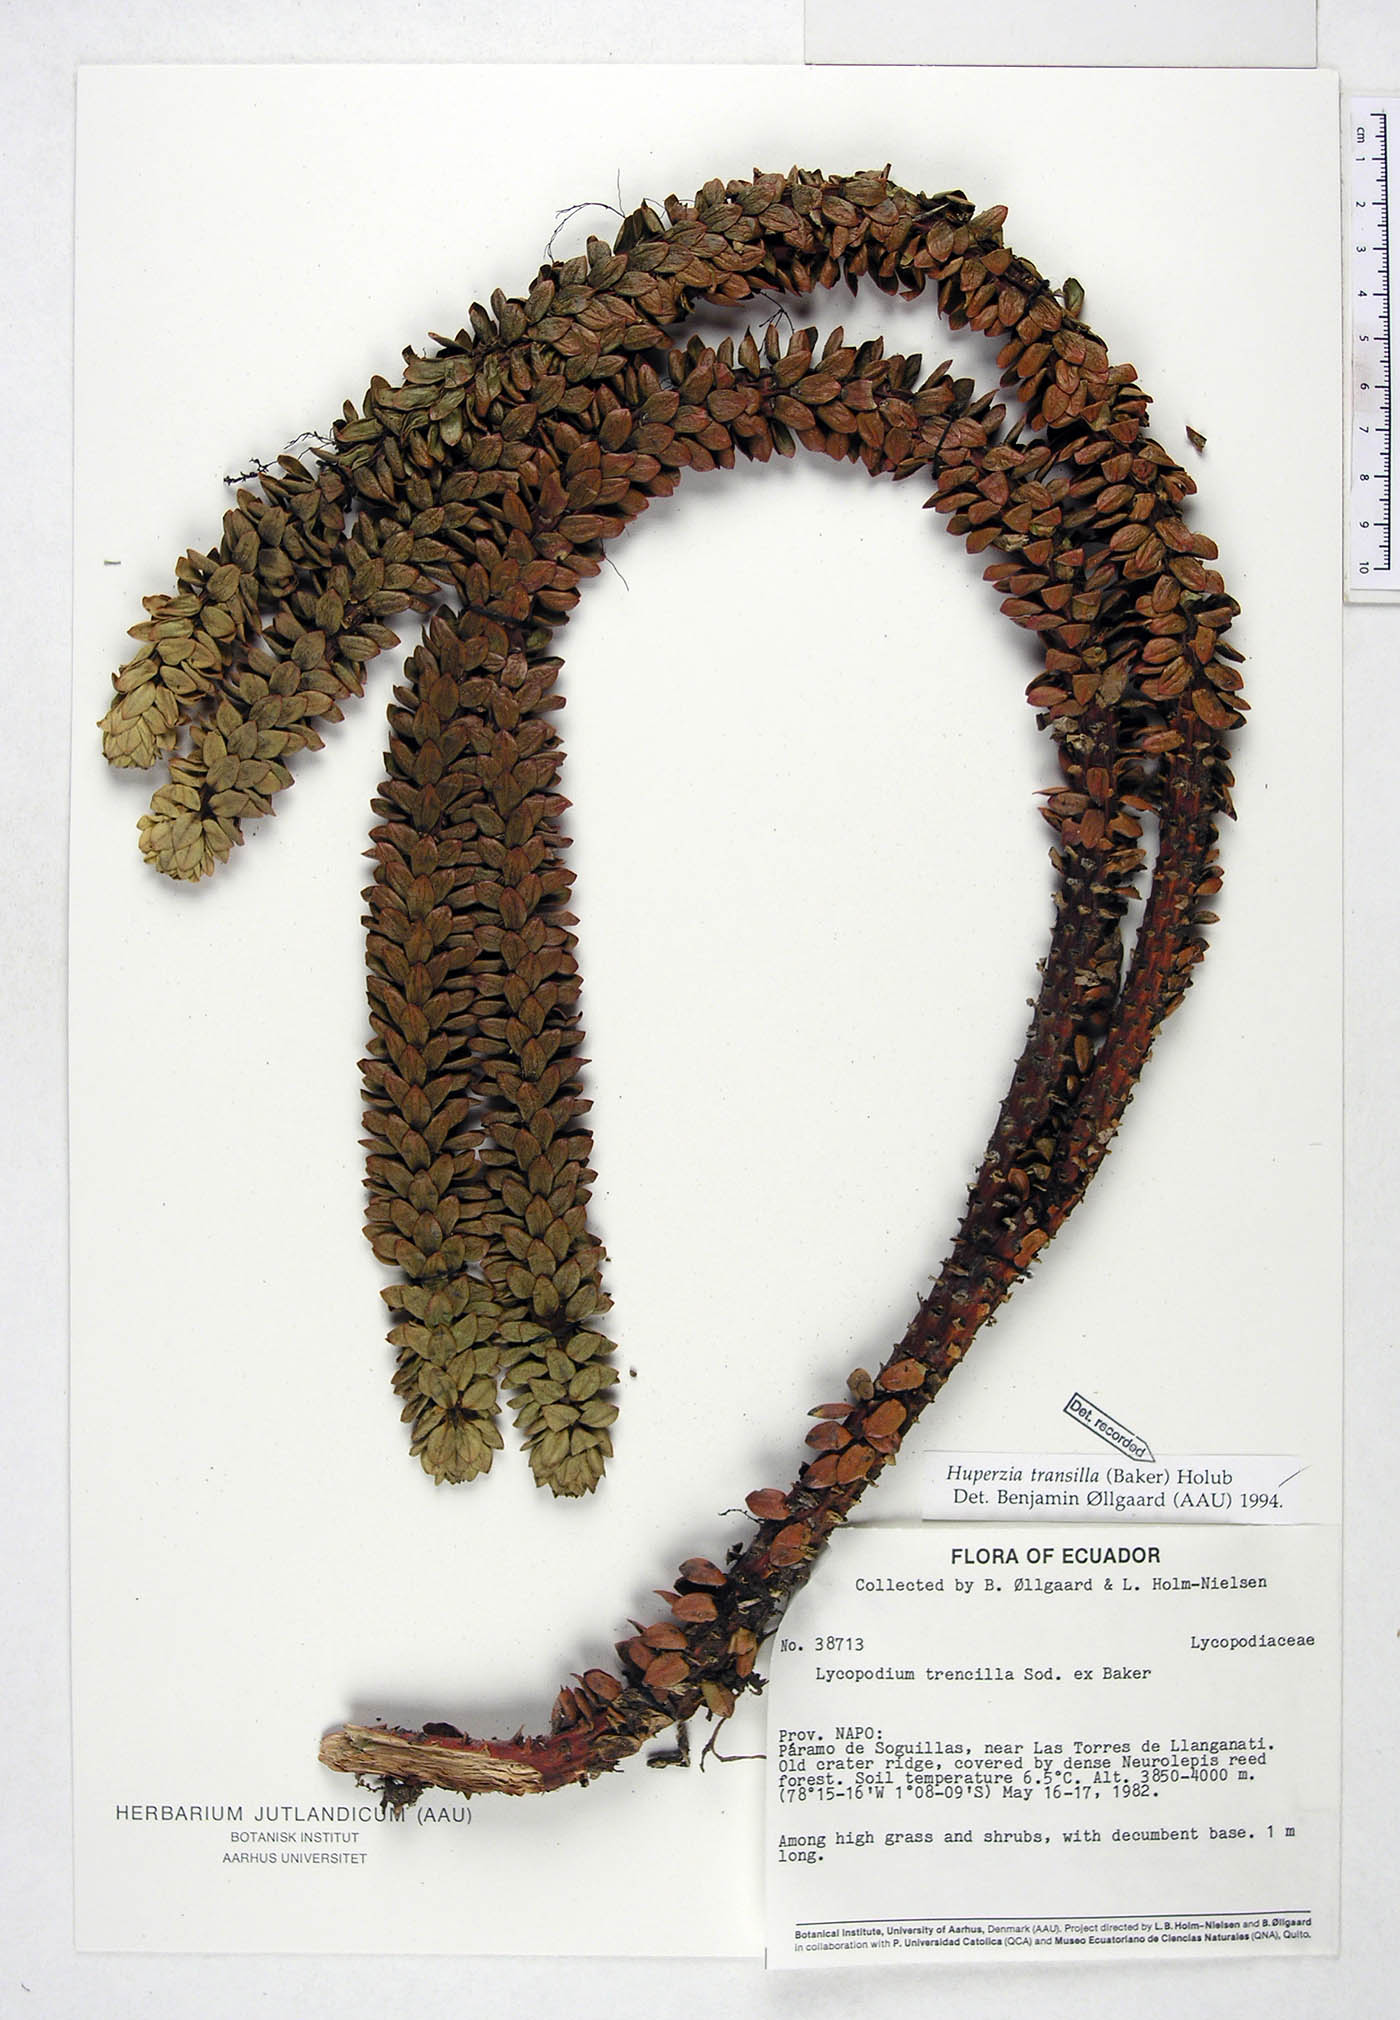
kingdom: Plantae
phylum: Tracheophyta
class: Lycopodiopsida
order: Lycopodiales
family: Lycopodiaceae
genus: Phlegmariurus
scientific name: Phlegmariurus transilla
